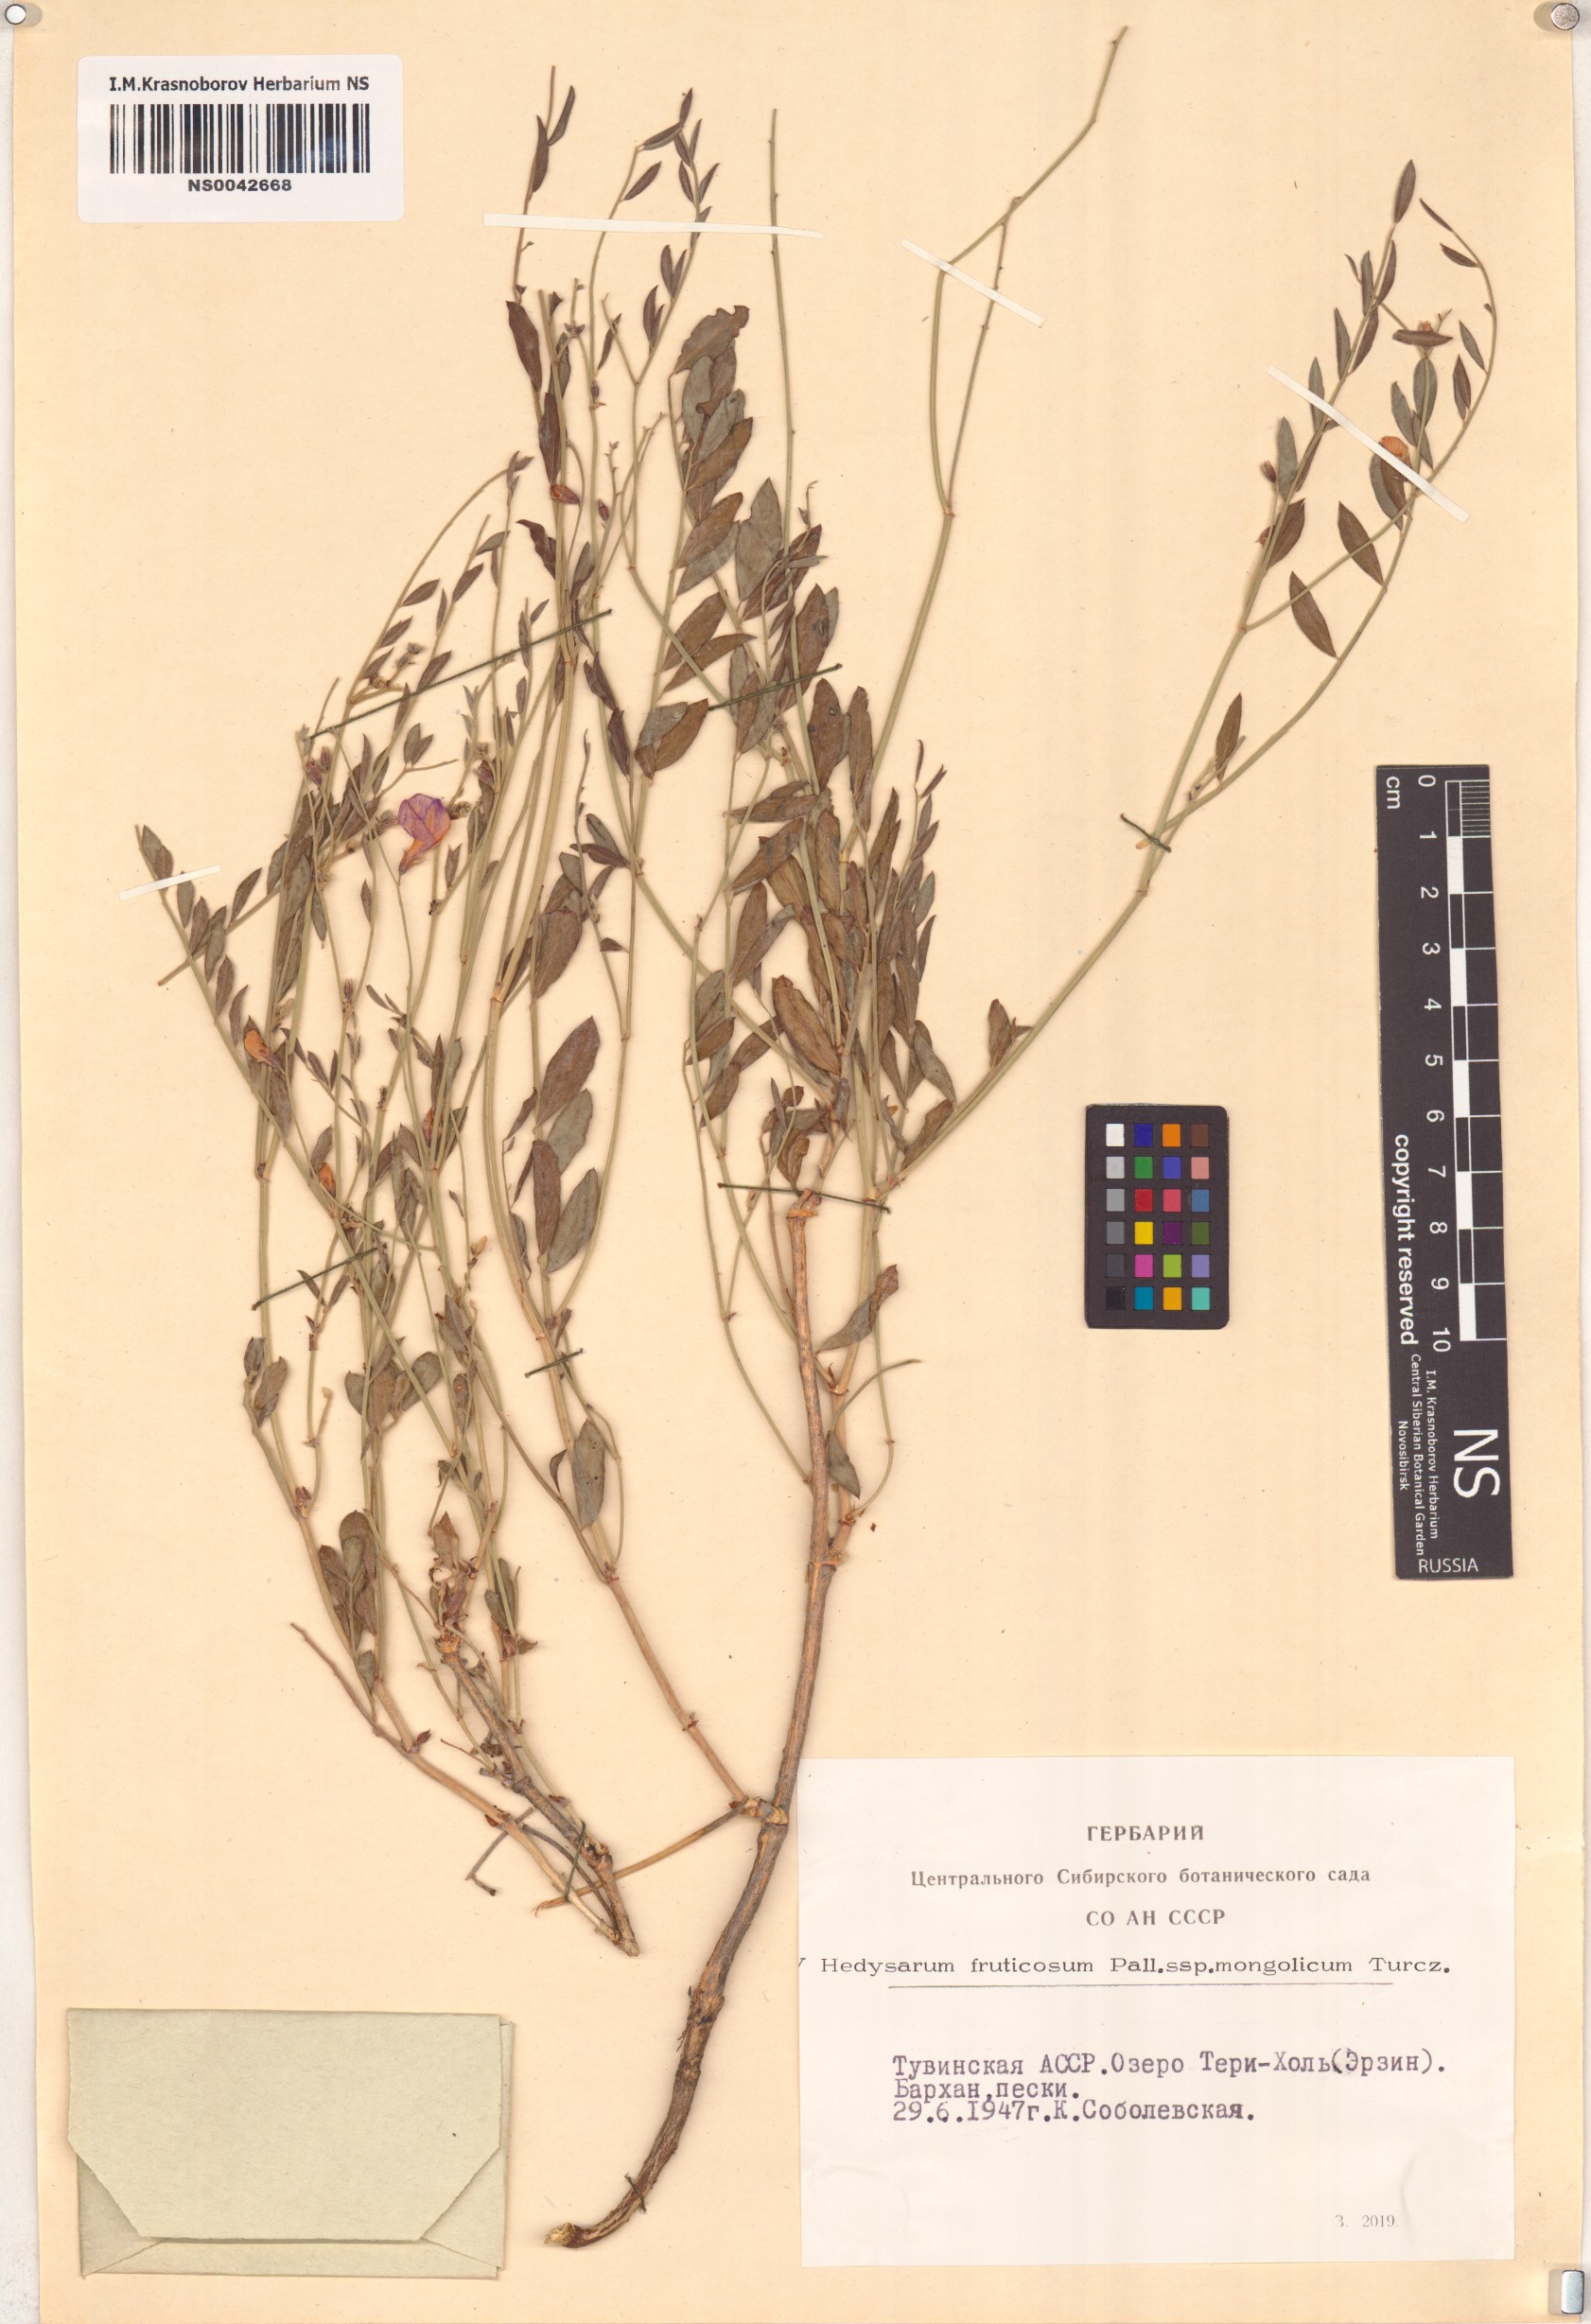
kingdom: Plantae
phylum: Tracheophyta
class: Magnoliopsida
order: Fabales
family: Fabaceae
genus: Corethrodendron
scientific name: Corethrodendron fruticosum
